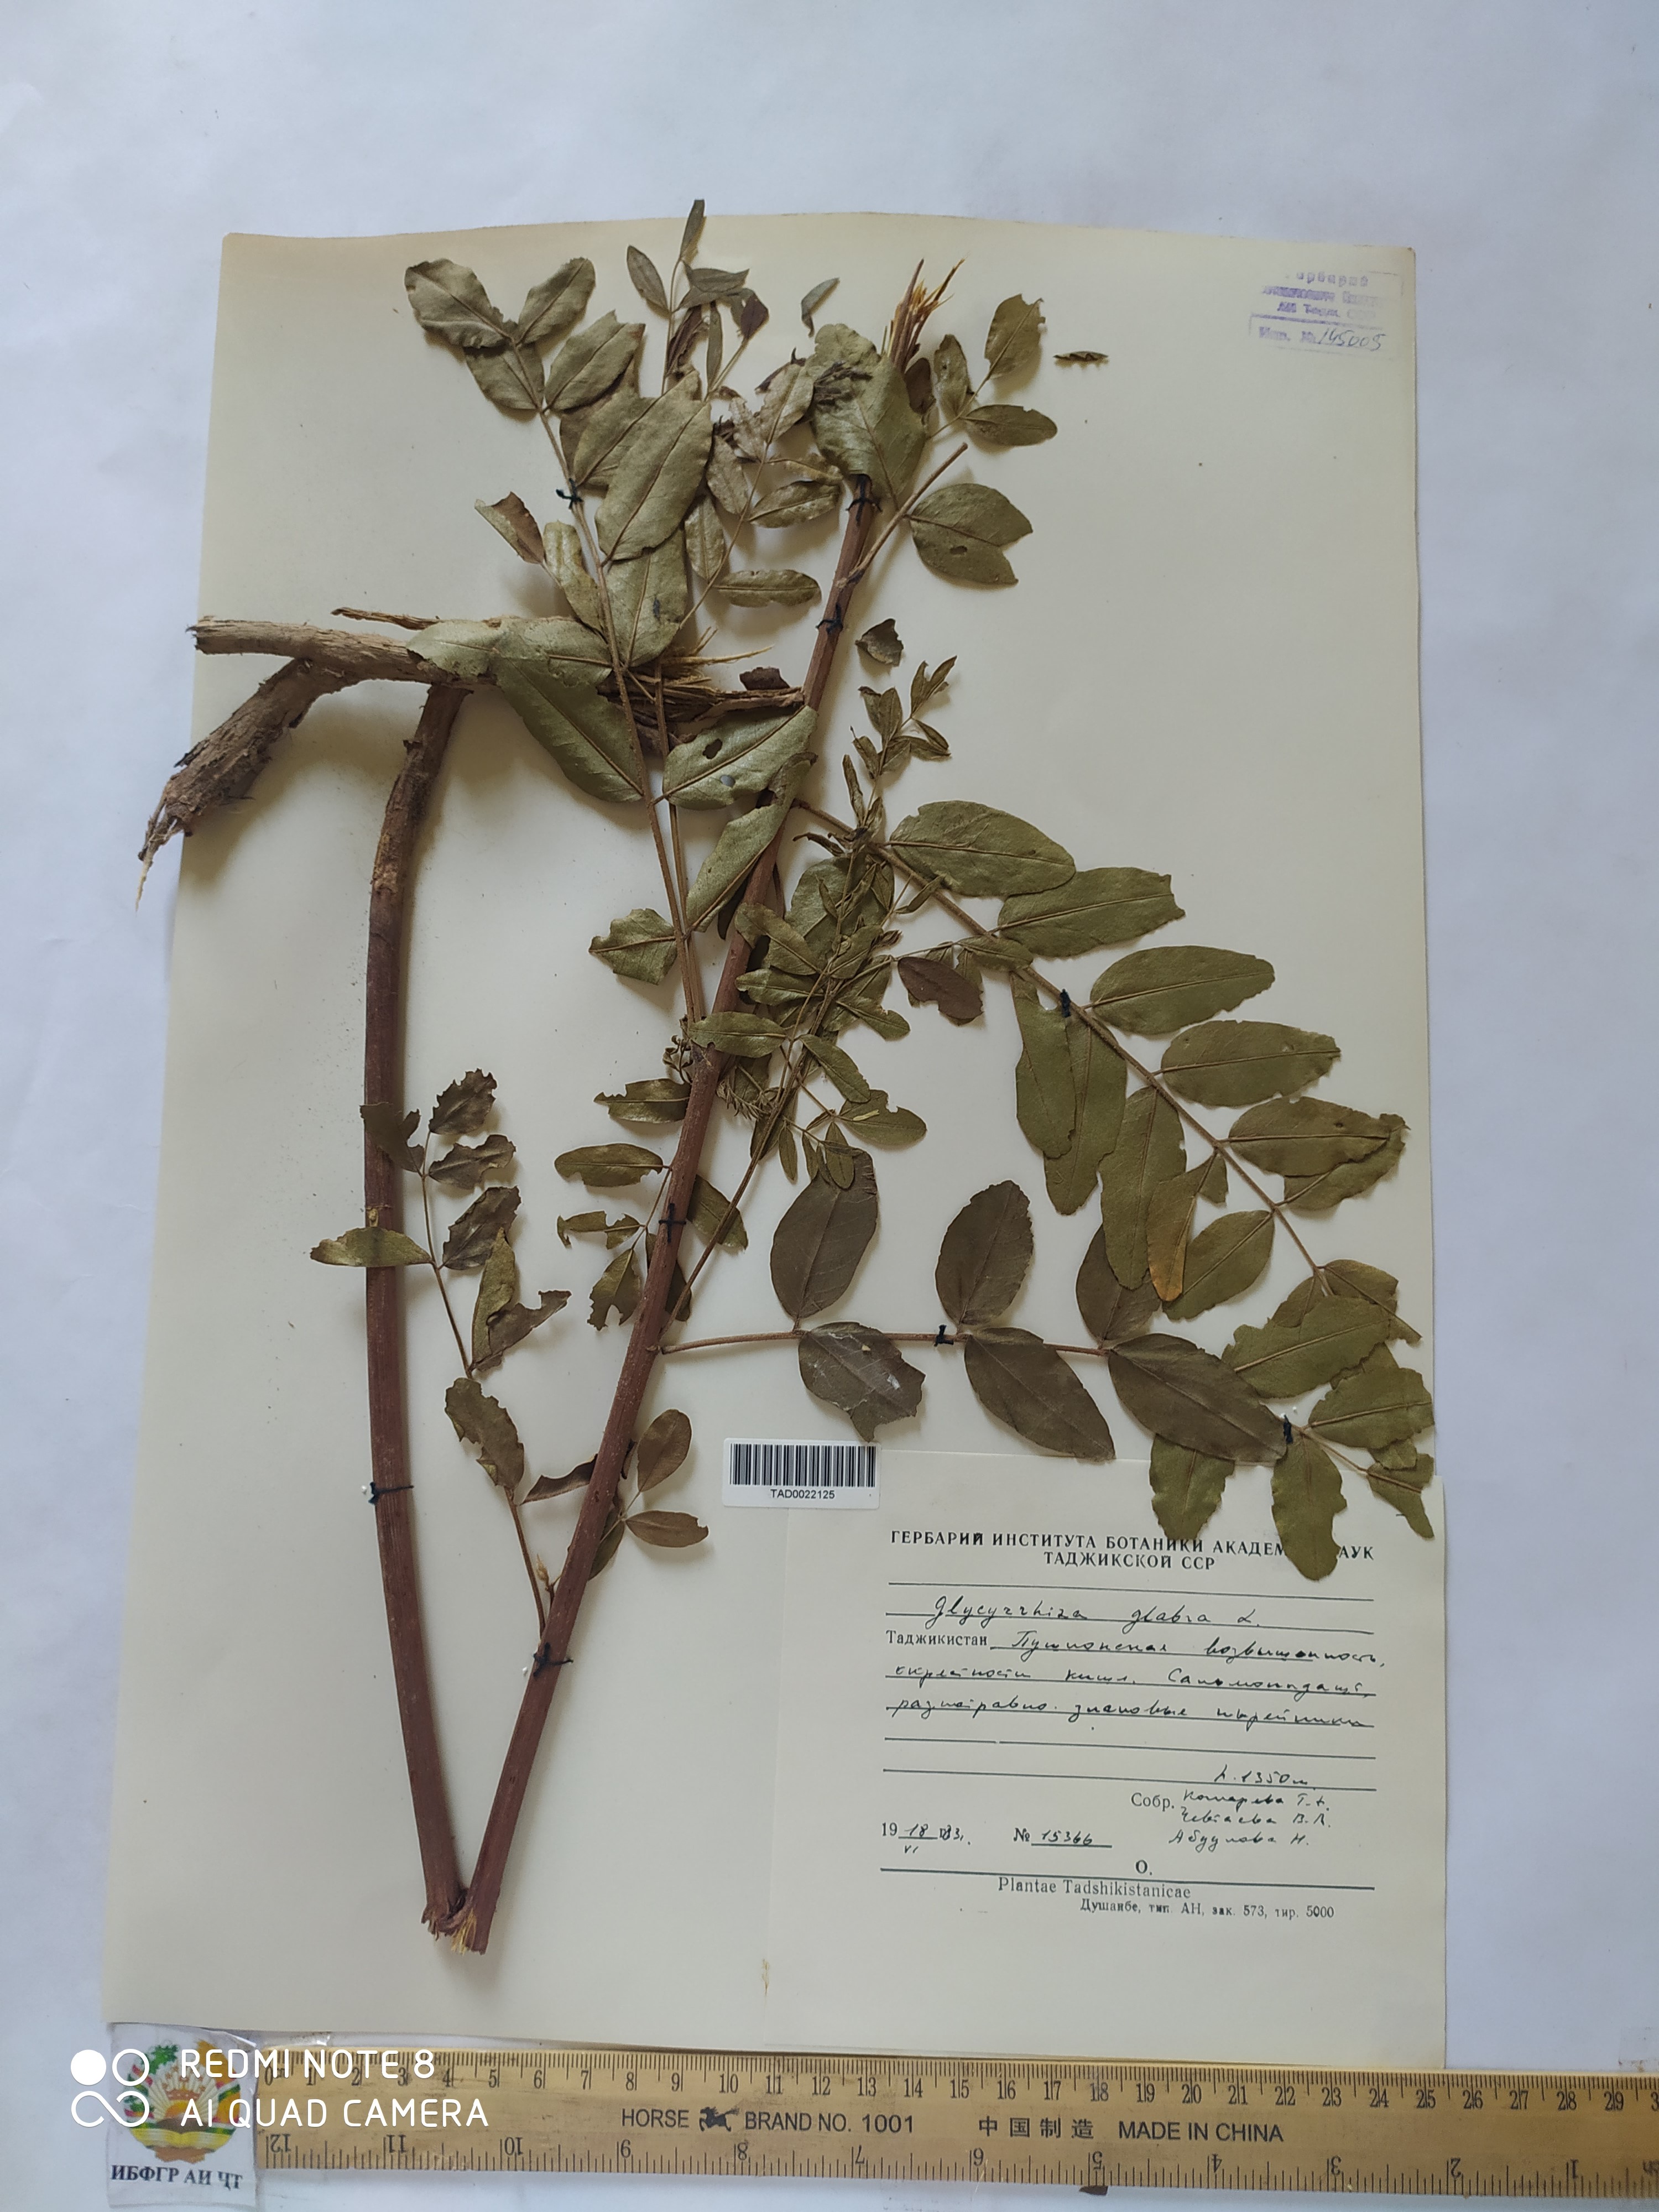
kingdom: Plantae
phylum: Tracheophyta
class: Magnoliopsida
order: Fabales
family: Fabaceae
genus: Glycyrrhiza
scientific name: Glycyrrhiza glabra
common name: Liquorice
